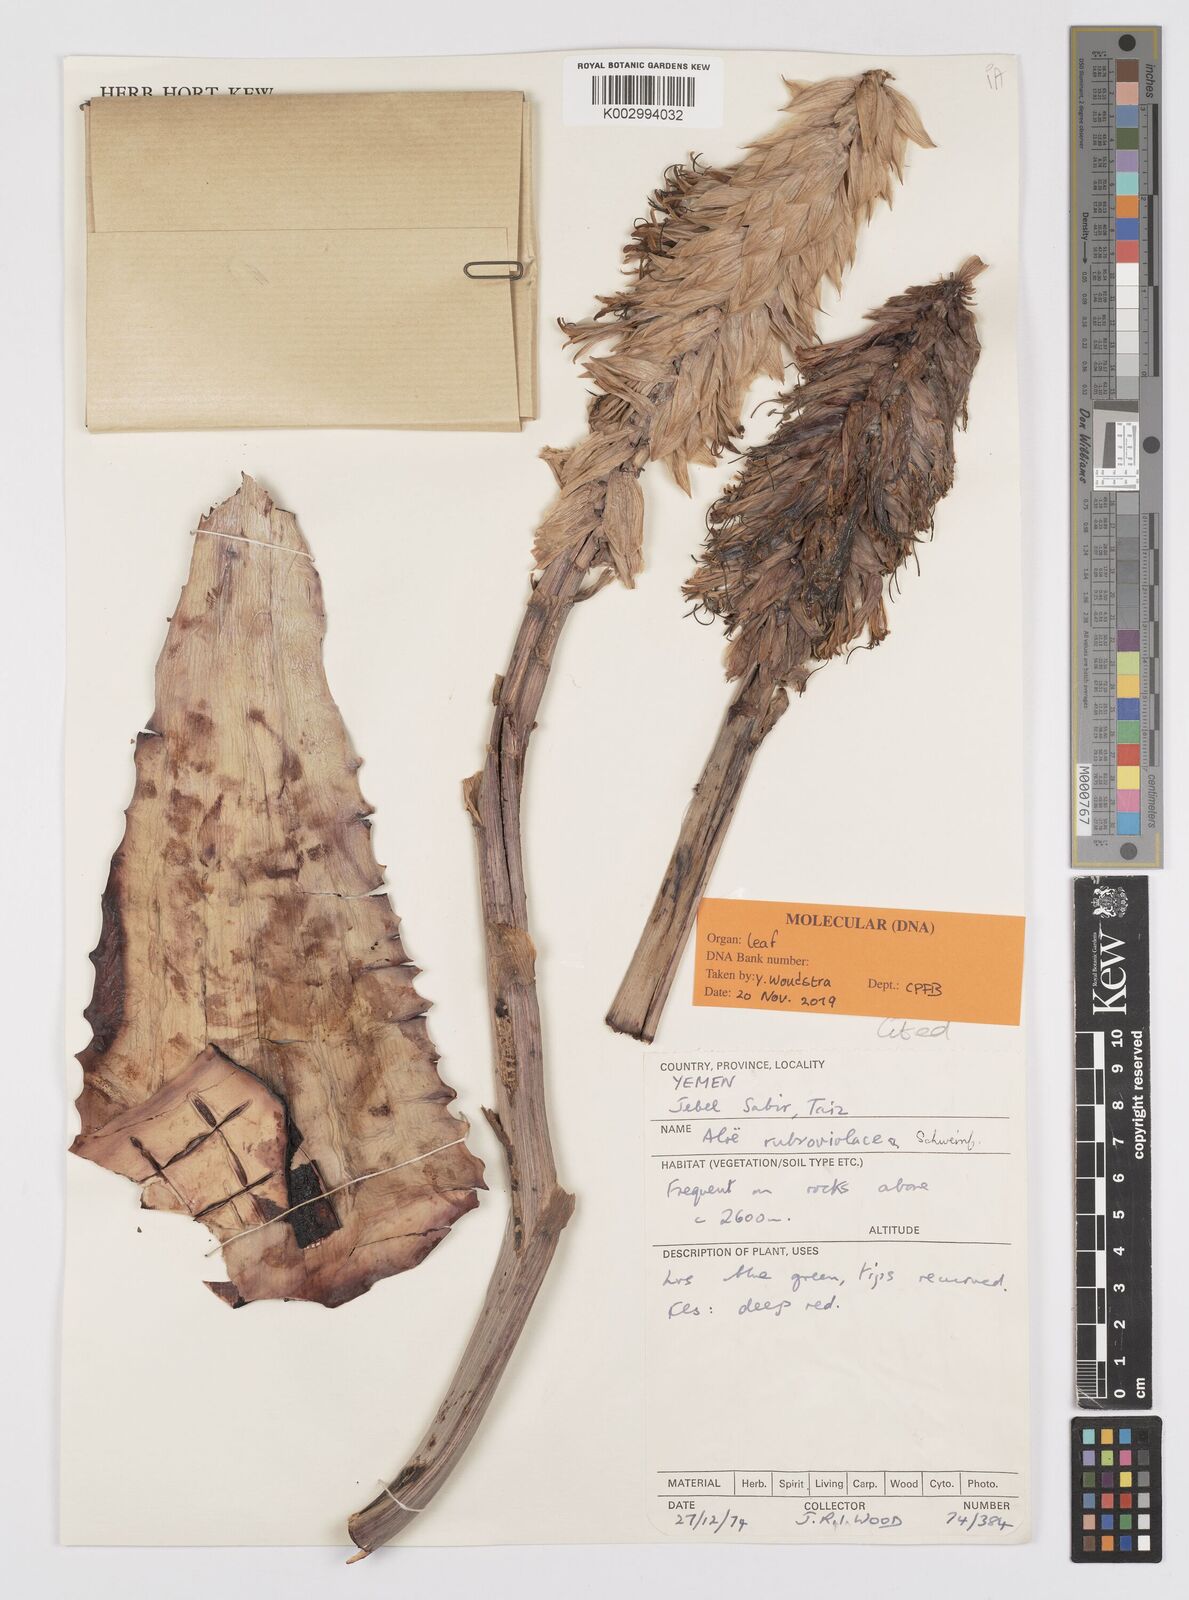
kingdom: Plantae
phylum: Tracheophyta
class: Liliopsida
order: Asparagales
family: Asphodelaceae
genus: Aloe
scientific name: Aloe rubroviolacea
